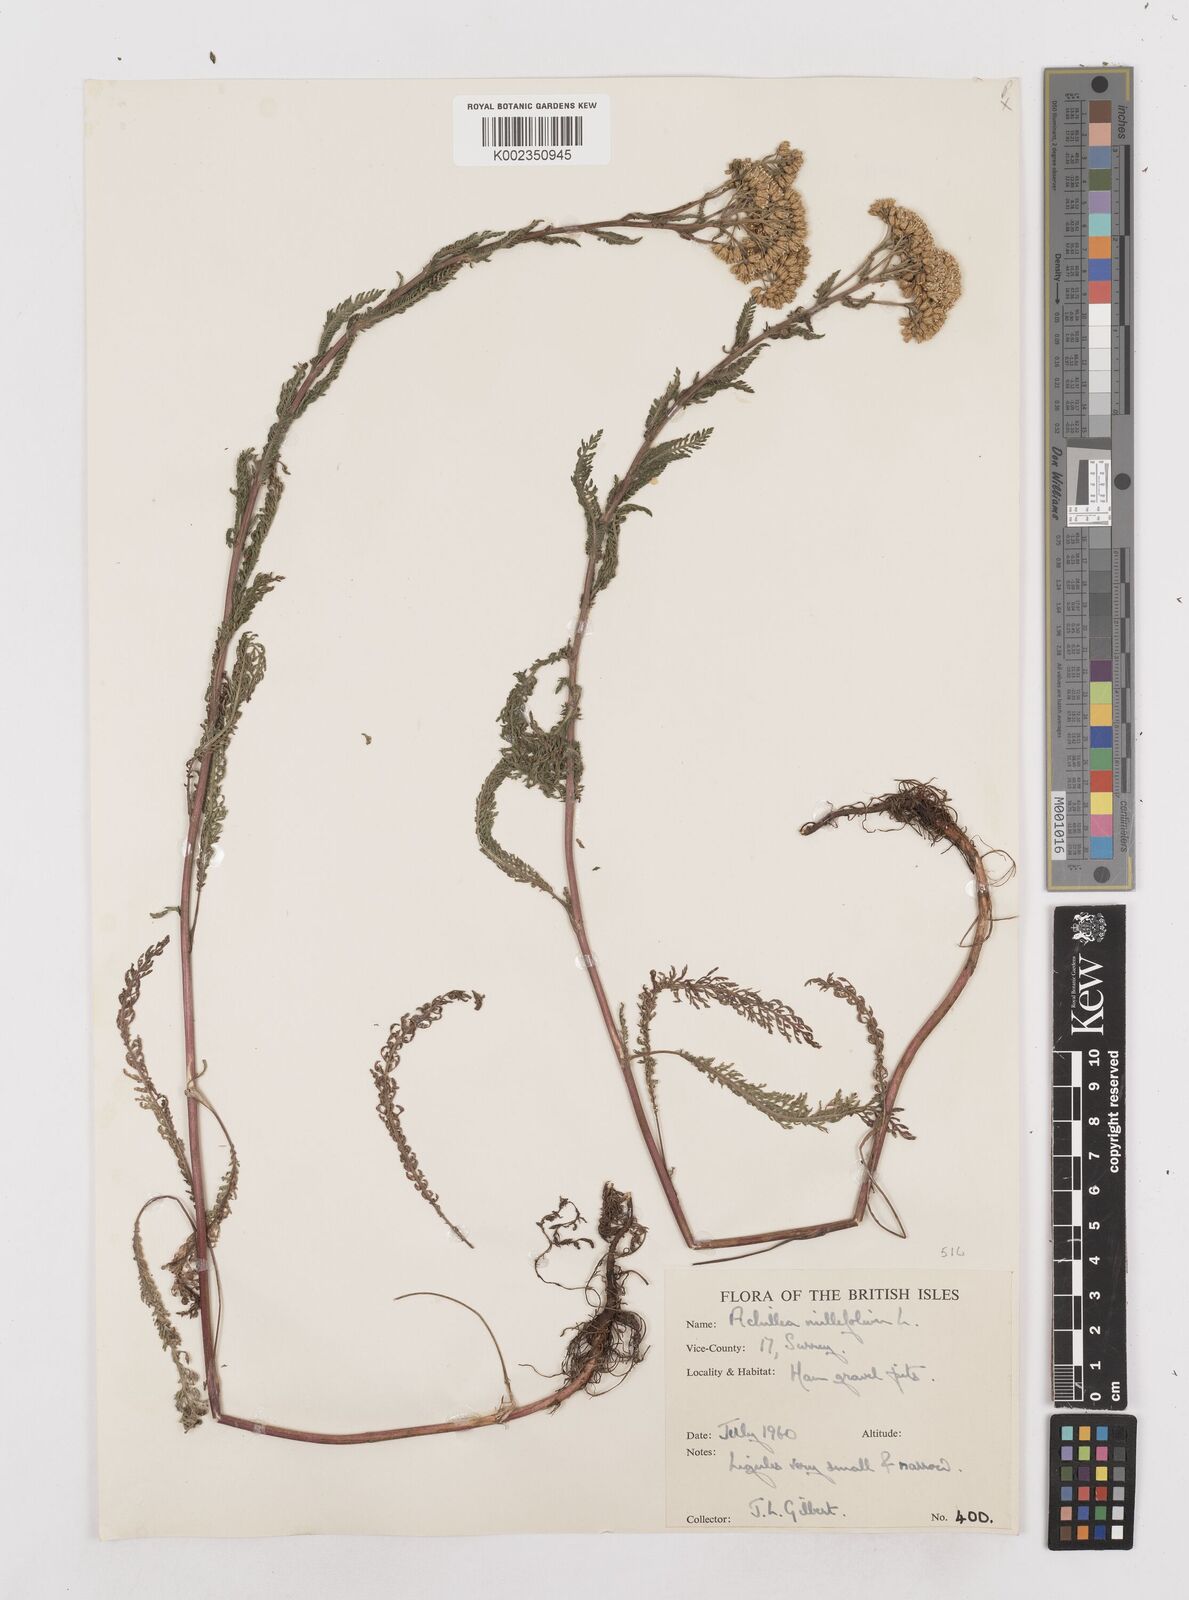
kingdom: Plantae
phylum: Tracheophyta
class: Magnoliopsida
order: Asterales
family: Asteraceae
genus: Achillea
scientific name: Achillea millefolium
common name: Yarrow
